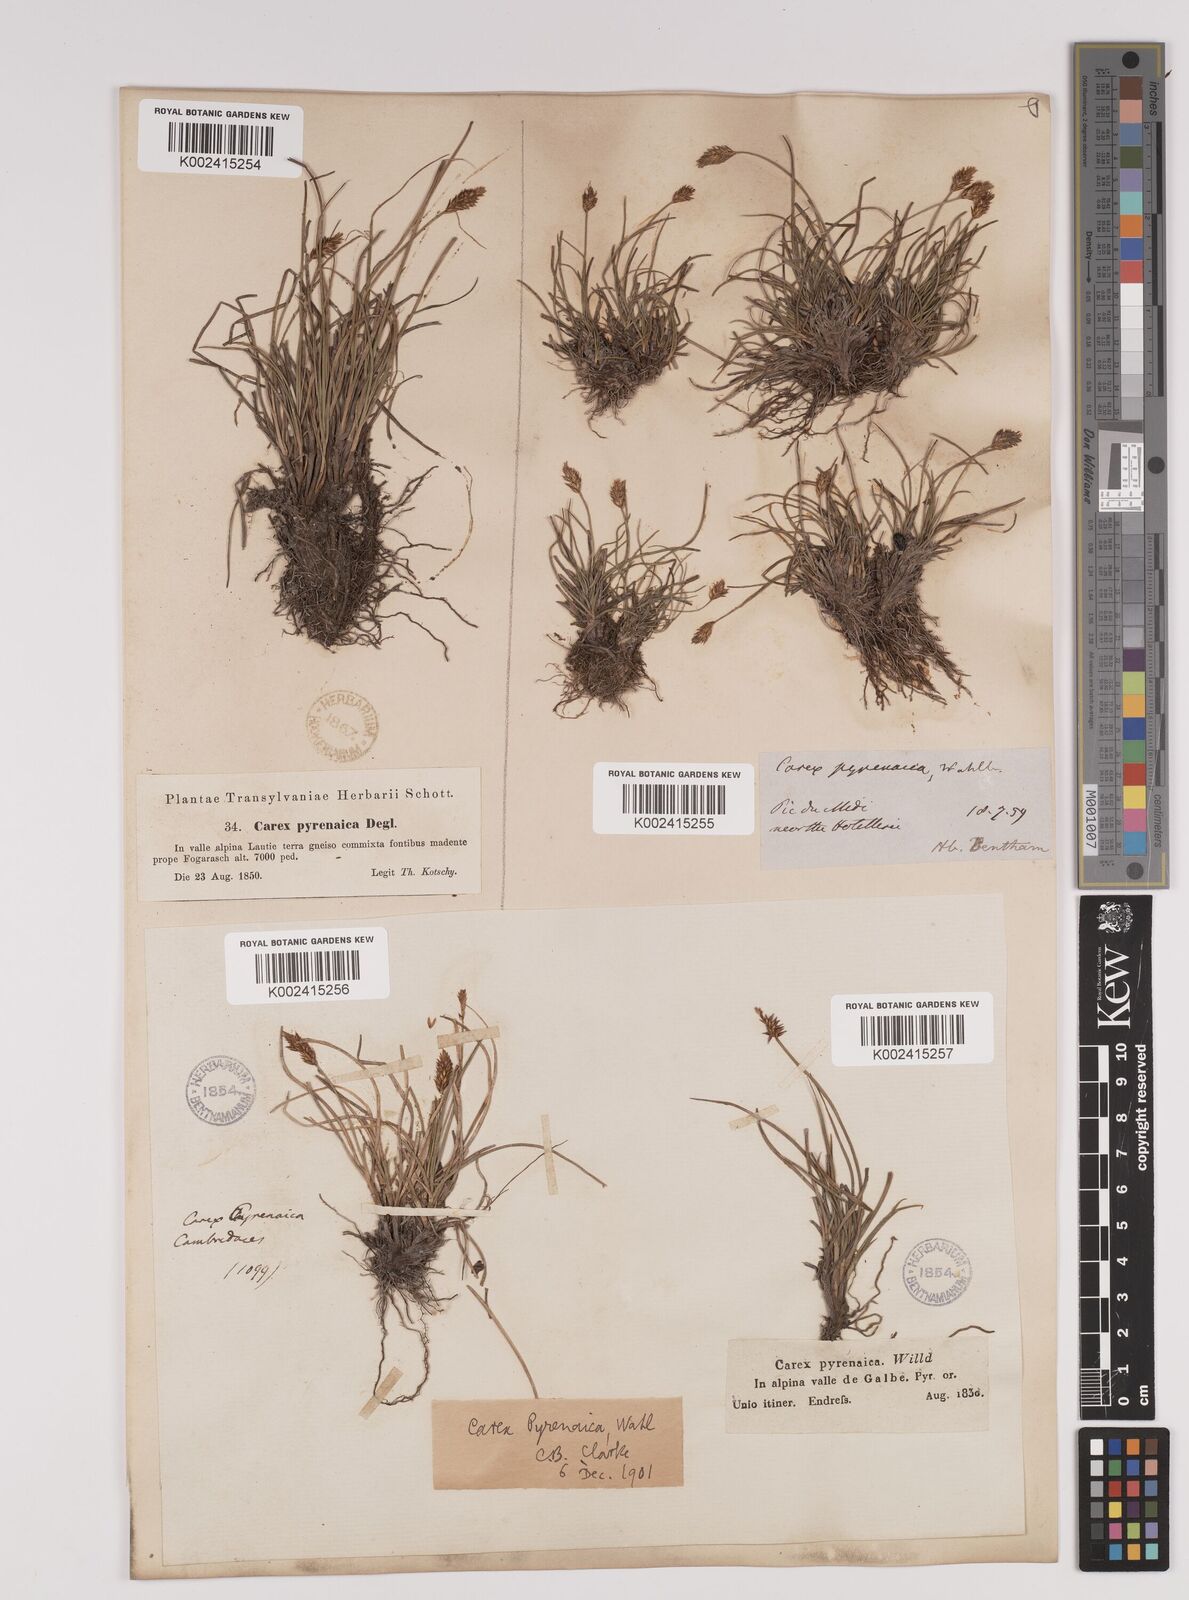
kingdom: Plantae
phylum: Tracheophyta
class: Liliopsida
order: Poales
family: Cyperaceae
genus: Carex
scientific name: Carex acicularis
